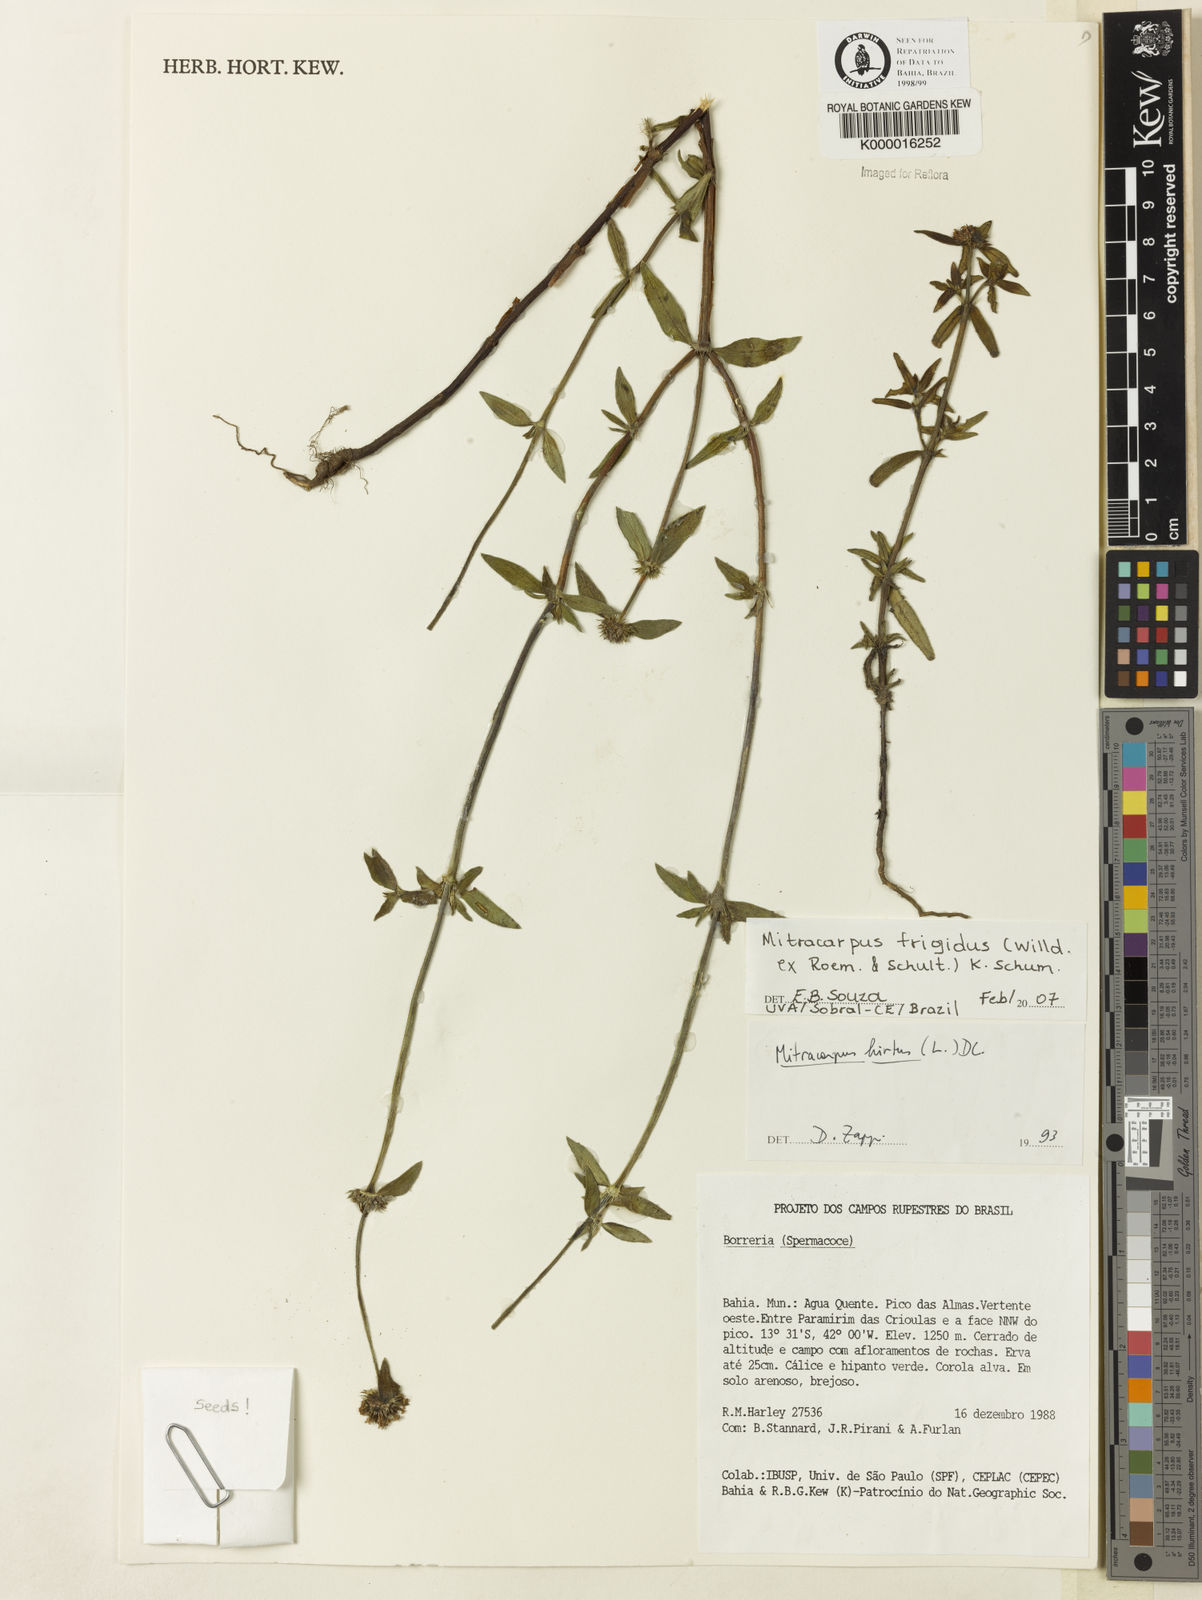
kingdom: Plantae
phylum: Tracheophyta
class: Magnoliopsida
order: Gentianales
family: Rubiaceae
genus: Mitracarpus
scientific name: Mitracarpus frigidus
